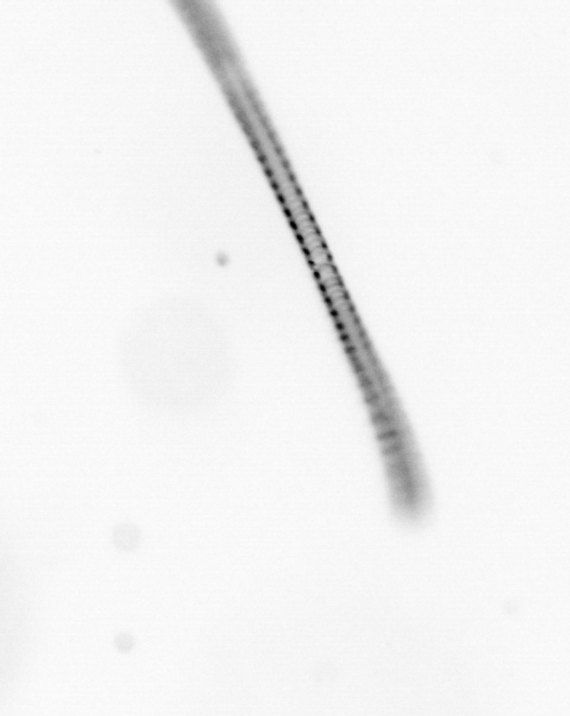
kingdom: Chromista
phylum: Ochrophyta
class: Bacillariophyceae
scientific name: Bacillariophyceae
